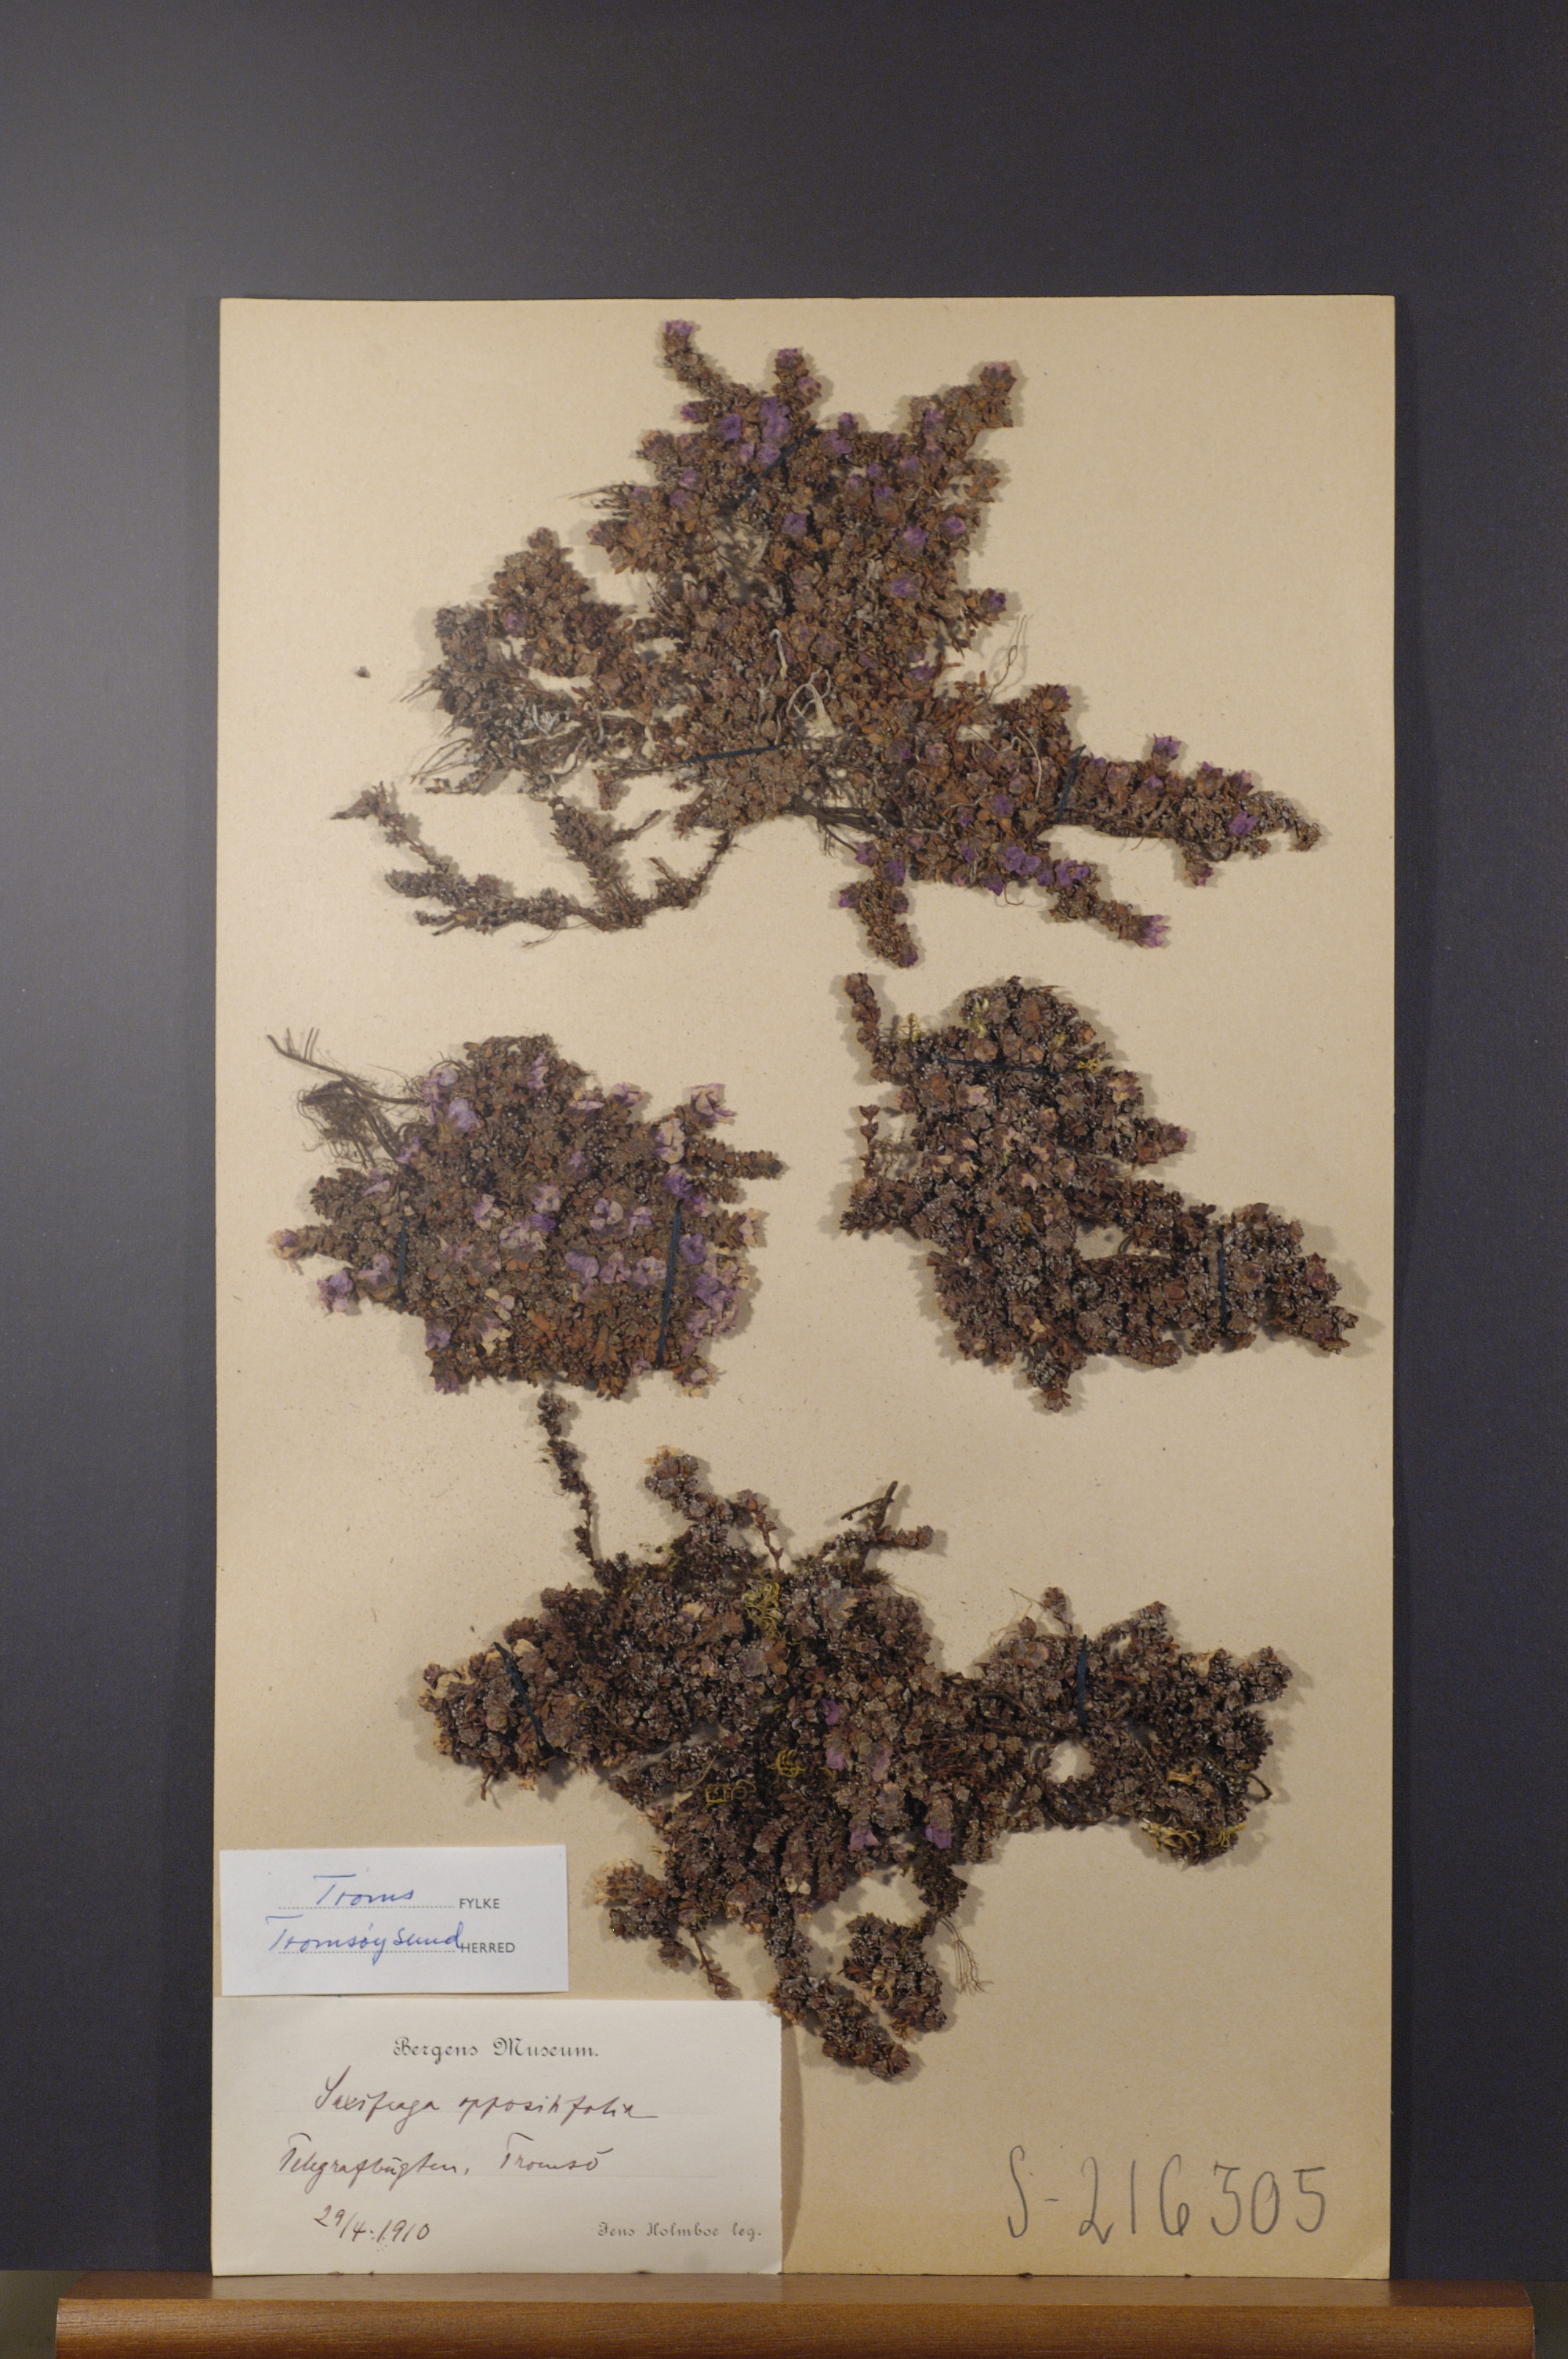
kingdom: Plantae
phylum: Tracheophyta
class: Magnoliopsida
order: Saxifragales
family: Saxifragaceae
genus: Saxifraga
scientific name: Saxifraga oppositifolia
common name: Purple saxifrage
